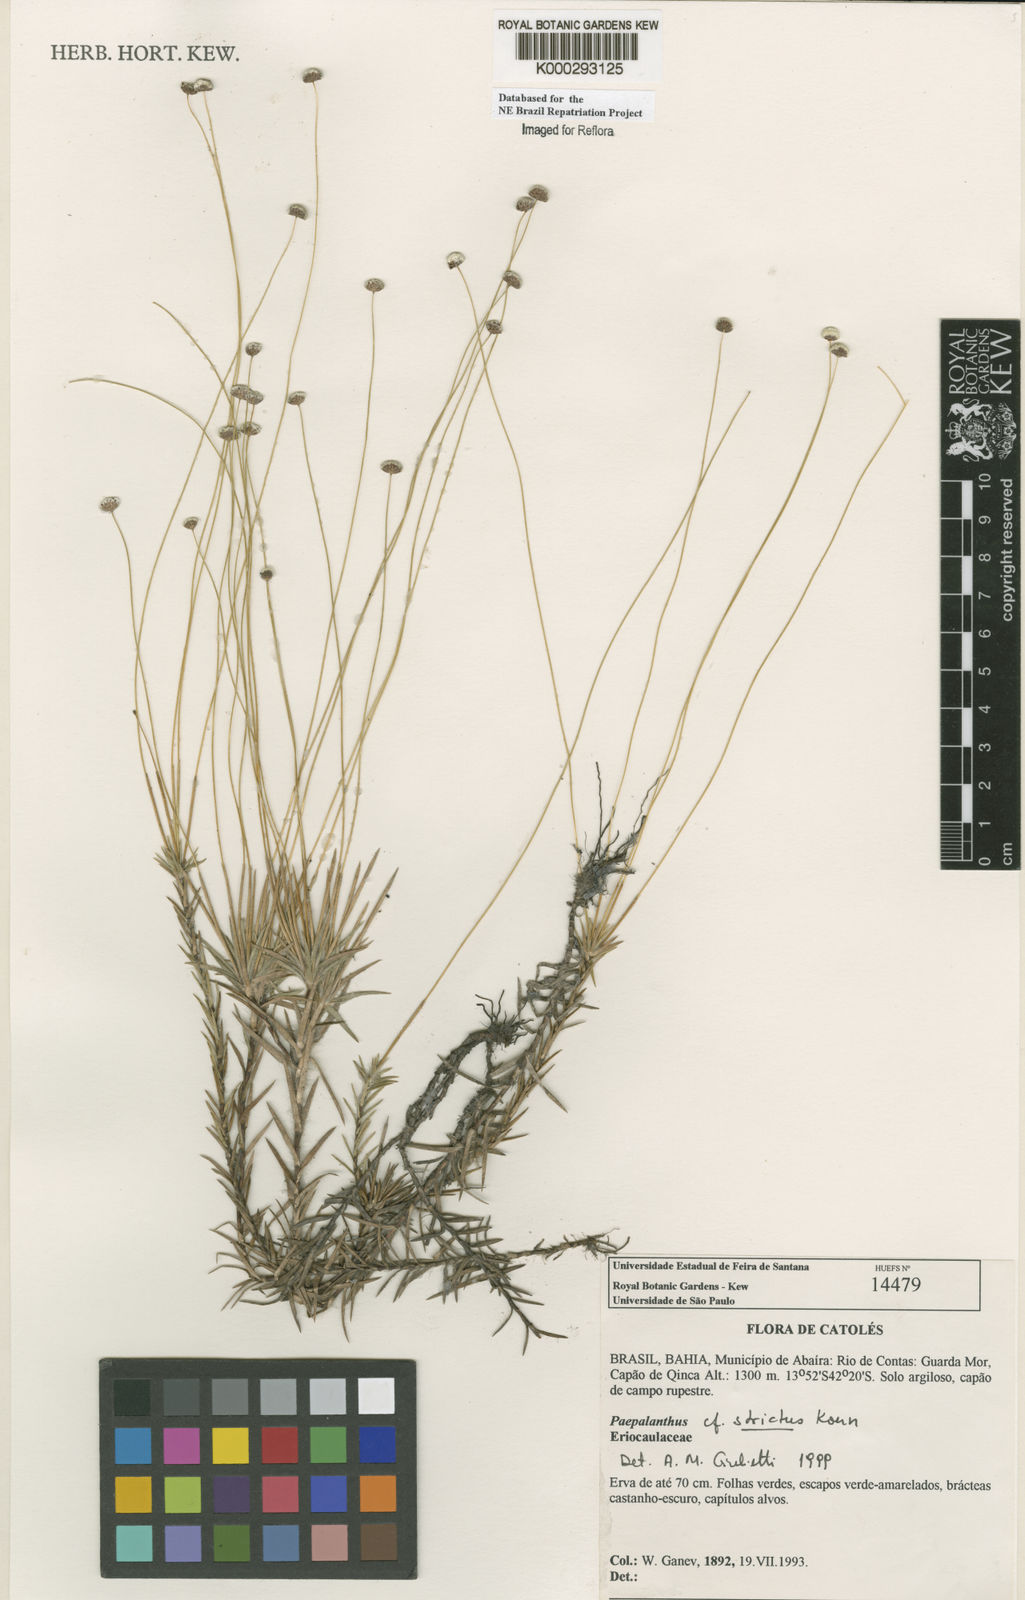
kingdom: Plantae
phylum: Tracheophyta
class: Liliopsida
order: Poales
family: Eriocaulaceae
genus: Paepalanthus
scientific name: Paepalanthus
